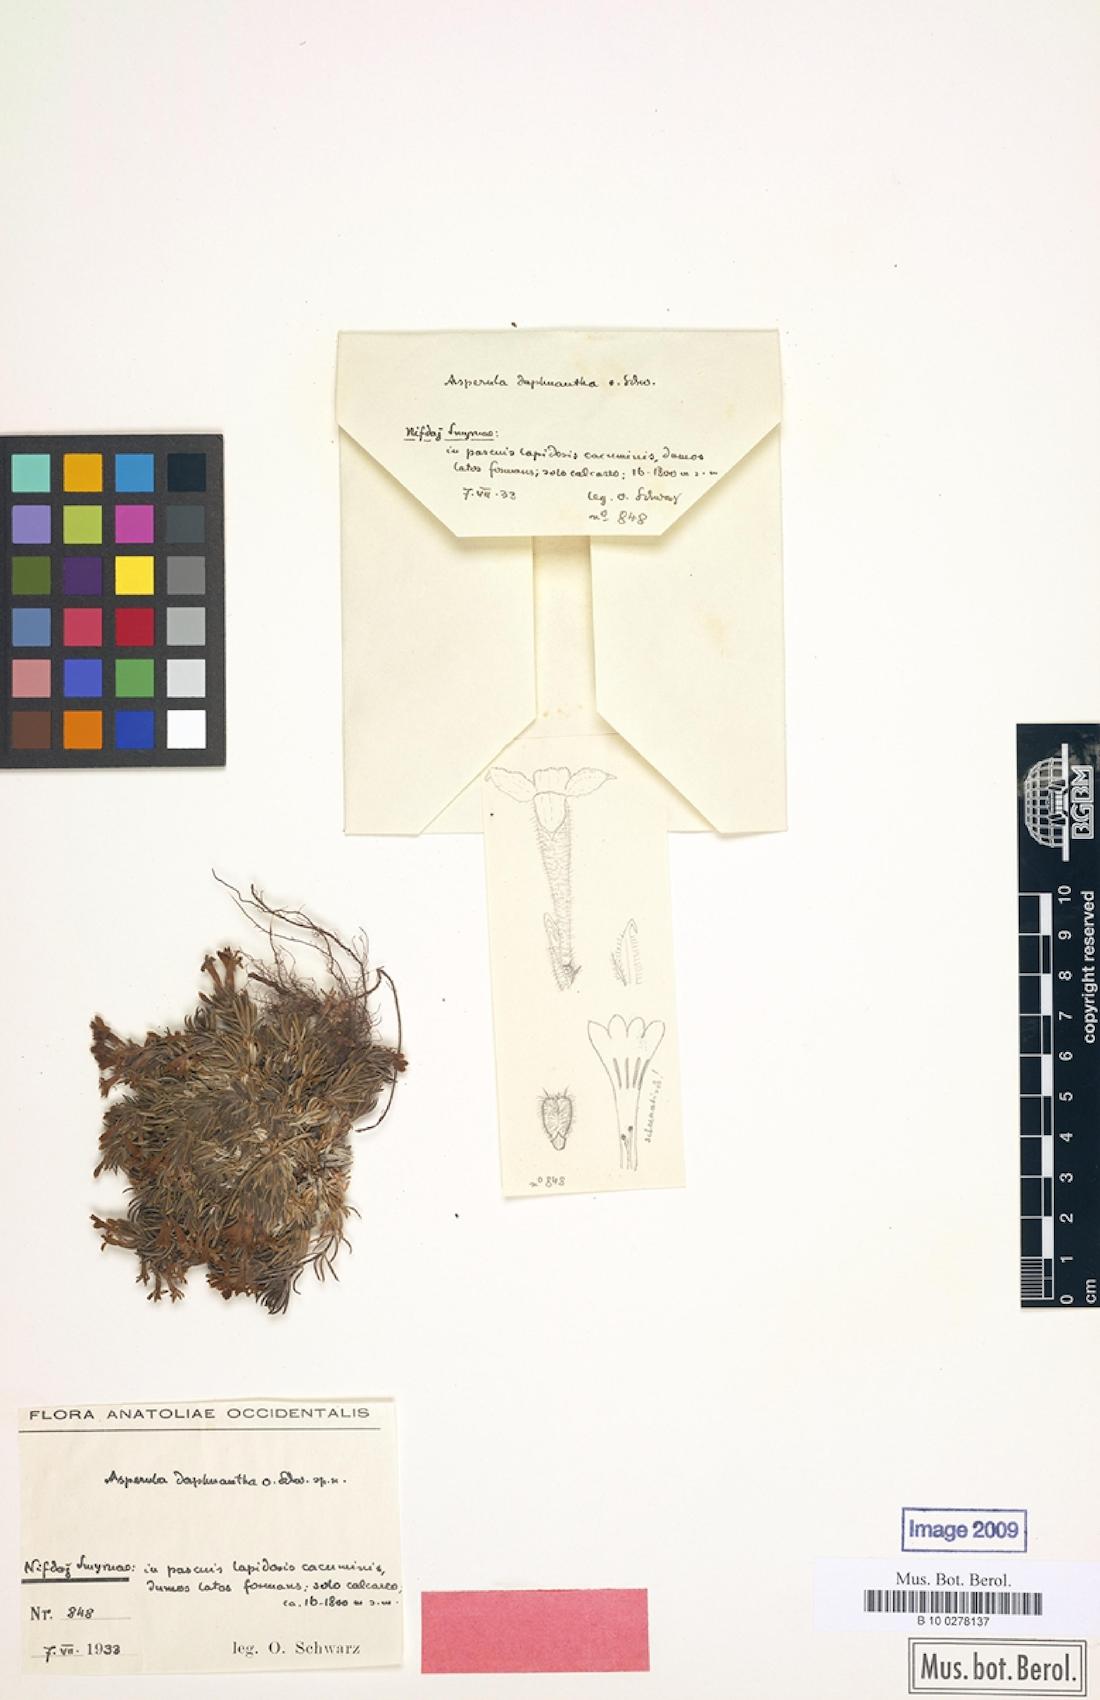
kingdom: Plantae
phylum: Tracheophyta
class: Magnoliopsida
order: Gentianales
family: Rubiaceae
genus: Asperula
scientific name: Asperula
